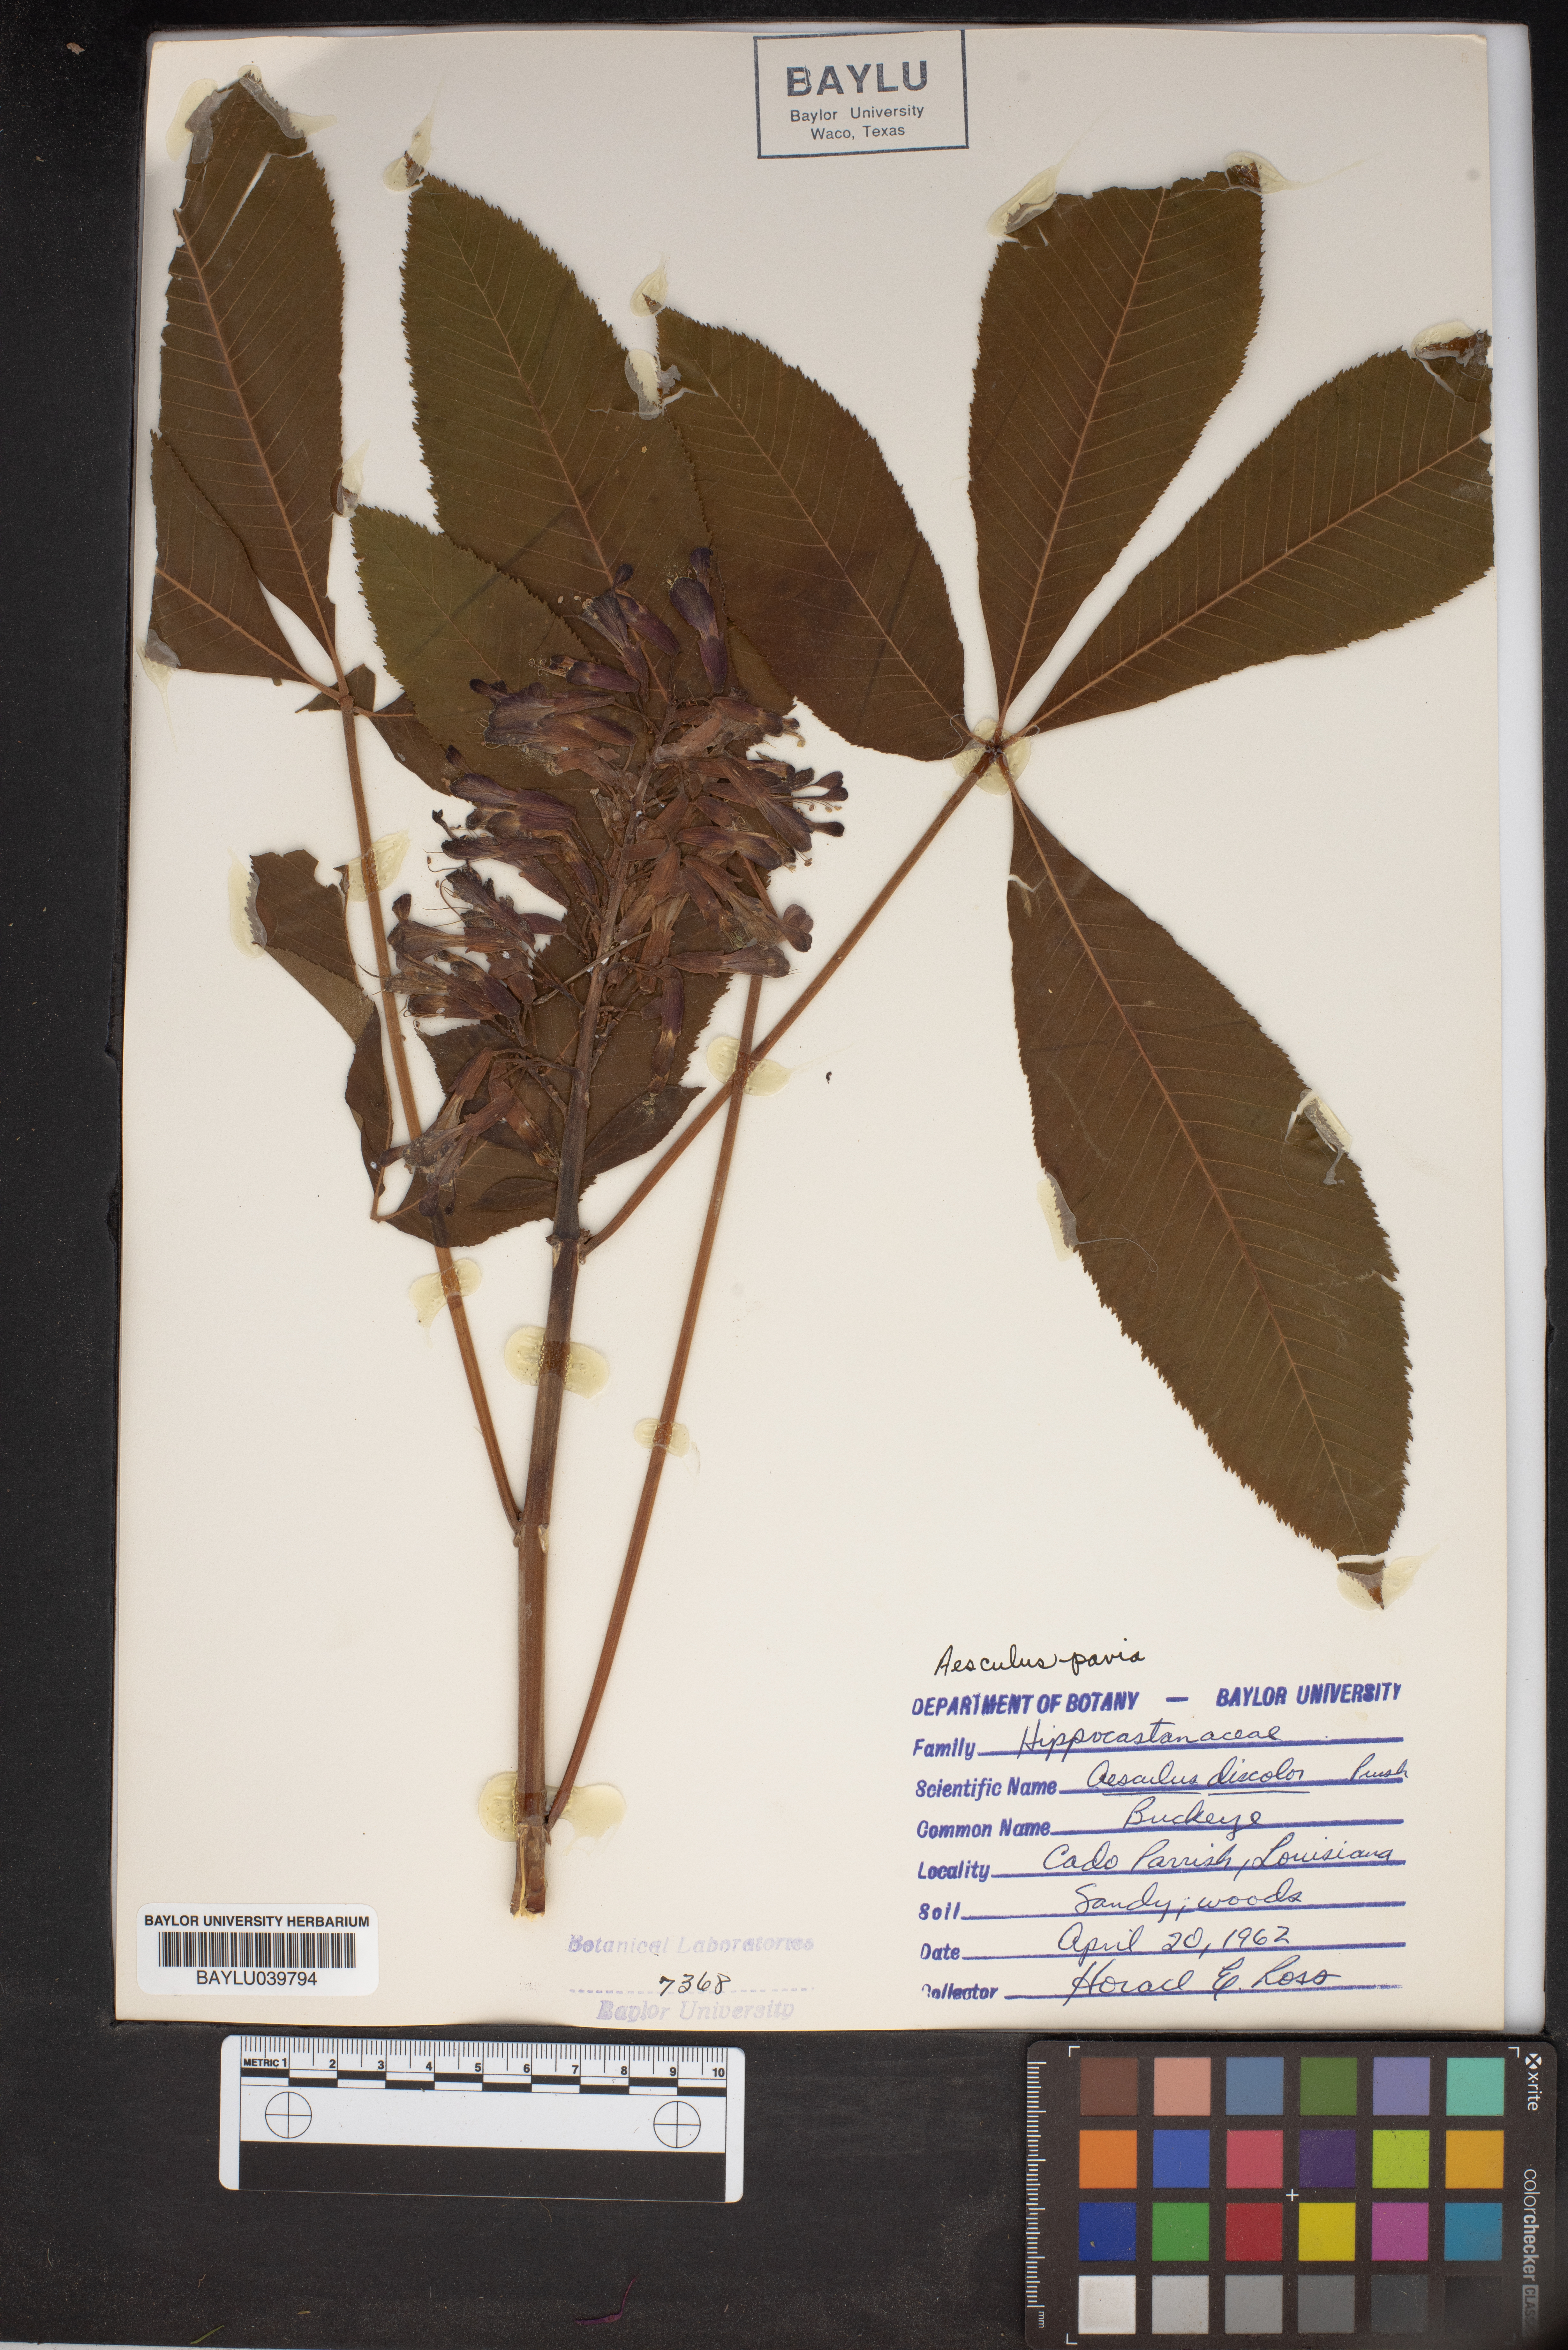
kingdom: Plantae
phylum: Tracheophyta
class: Magnoliopsida
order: Sapindales
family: Sapindaceae
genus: Aesculus
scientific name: Aesculus pavia
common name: Red buckeye
